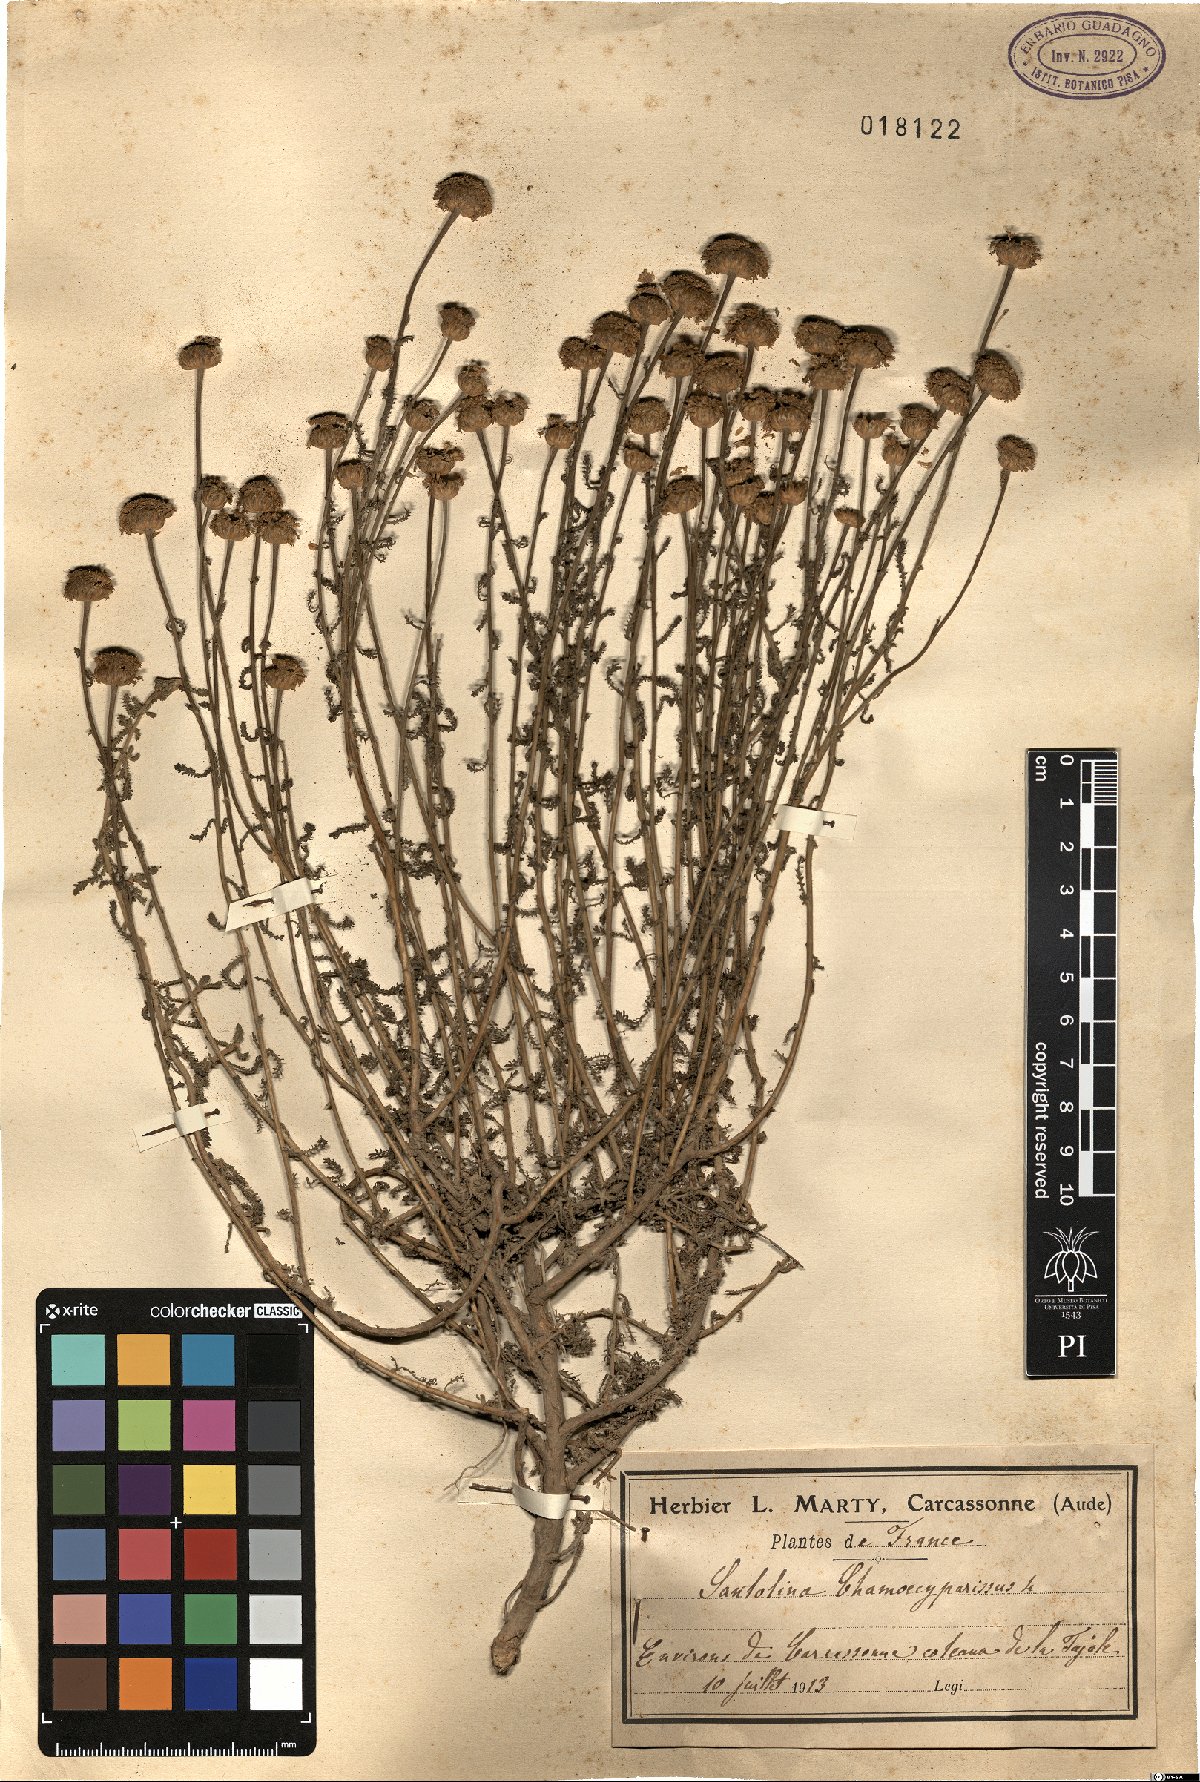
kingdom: Plantae
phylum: Tracheophyta
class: Magnoliopsida
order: Asterales
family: Asteraceae
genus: Santolina
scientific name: Santolina chamaecyparissus
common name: Lavender-cotton
